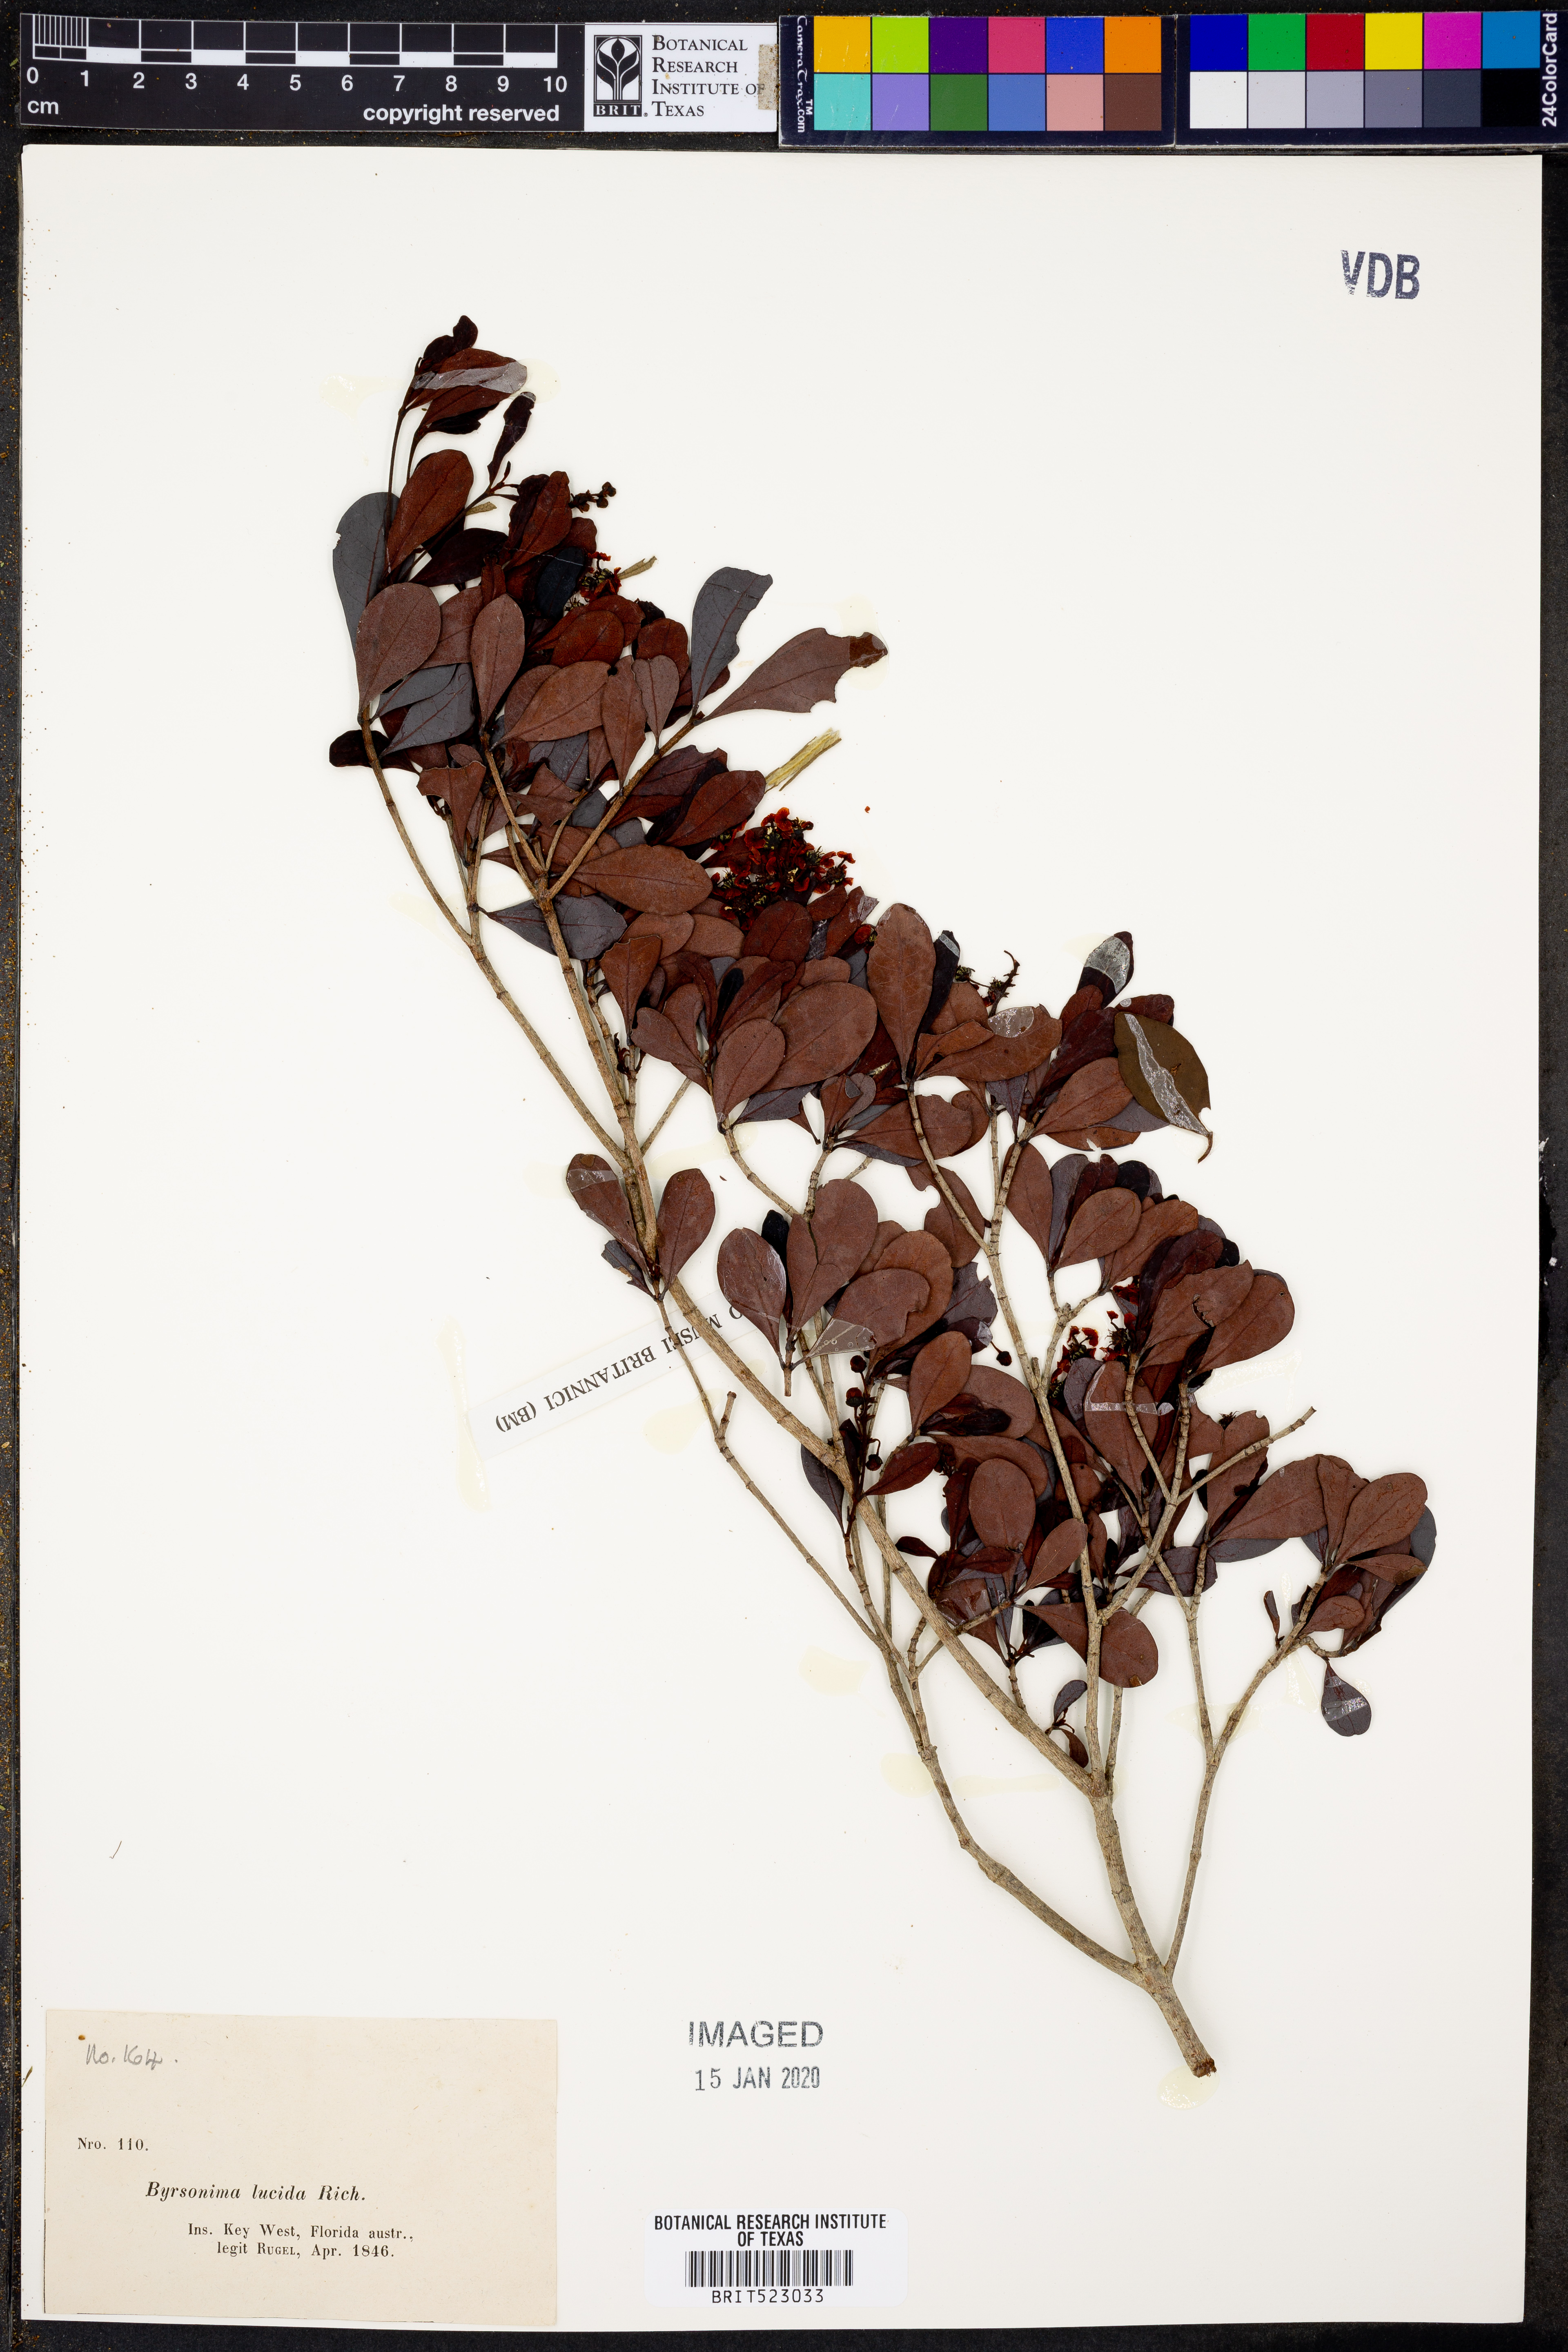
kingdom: Plantae
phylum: Tracheophyta
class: Magnoliopsida
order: Malpighiales
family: Malpighiaceae
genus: Byrsonima
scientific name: Byrsonima lucida
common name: Clam-cherry
